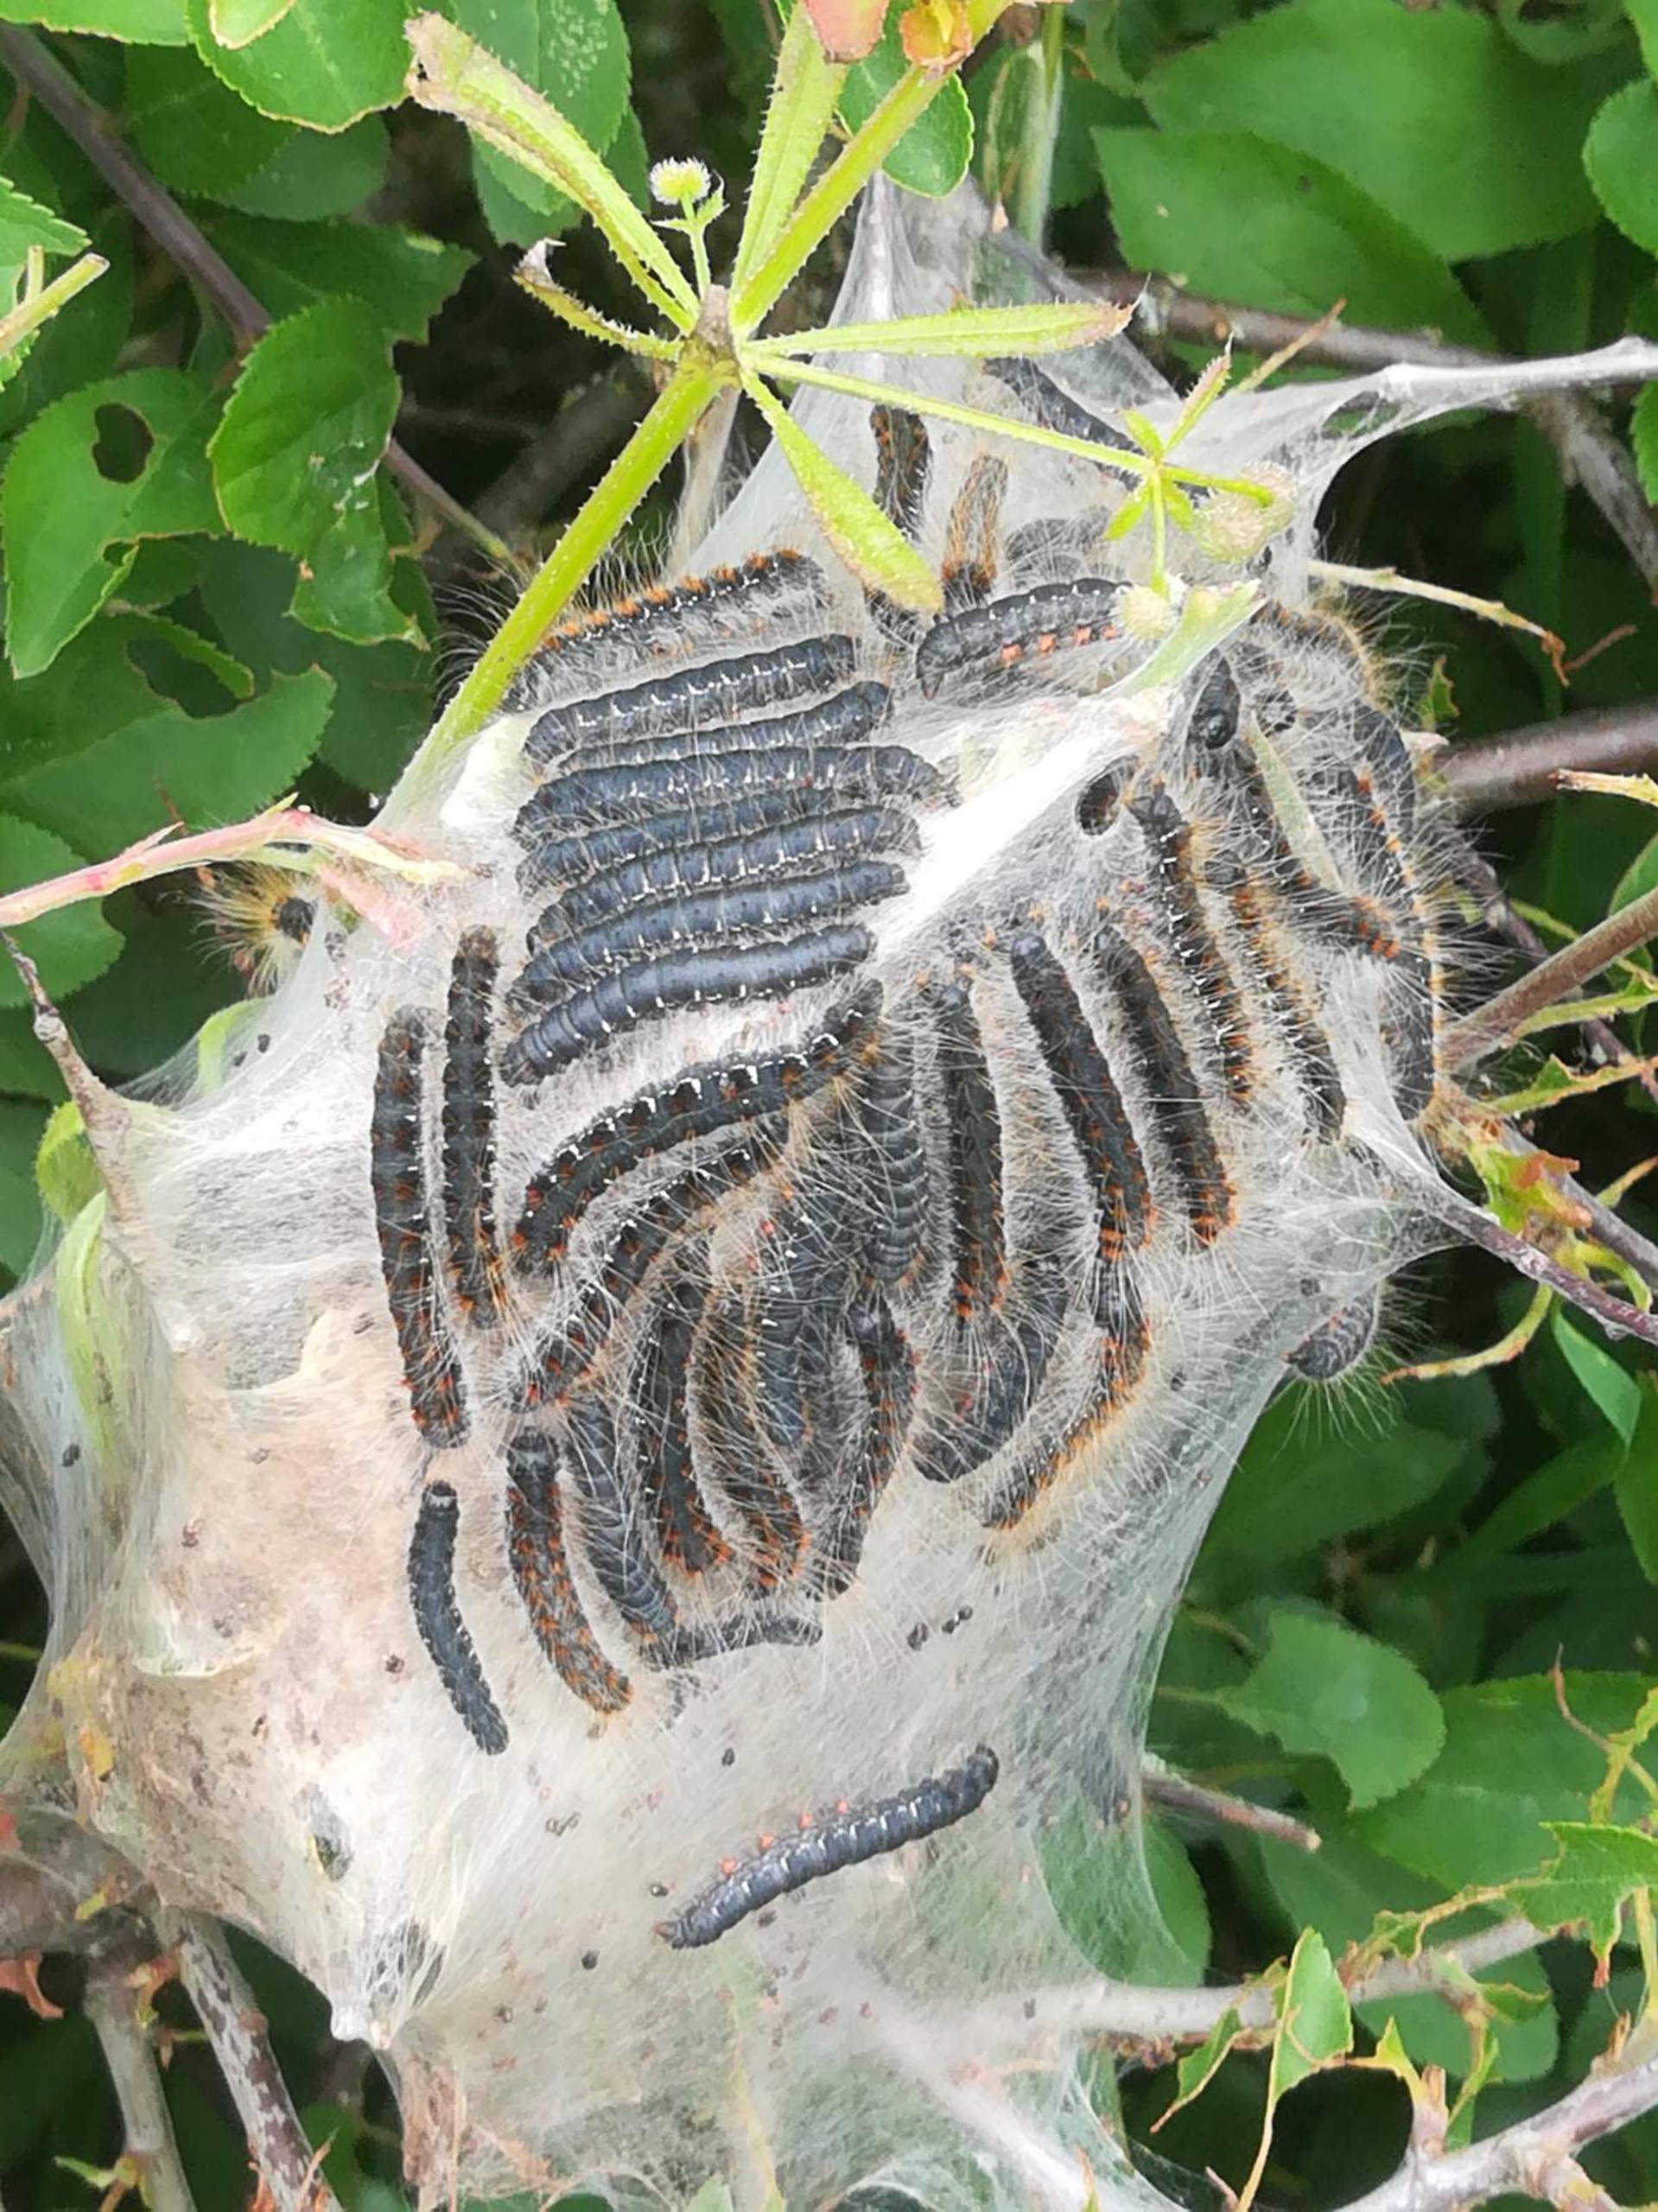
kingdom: Plantae
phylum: Tracheophyta
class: Magnoliopsida
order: Gentianales
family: Rubiaceae
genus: Galium
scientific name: Galium aparine
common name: Burre-snerre
